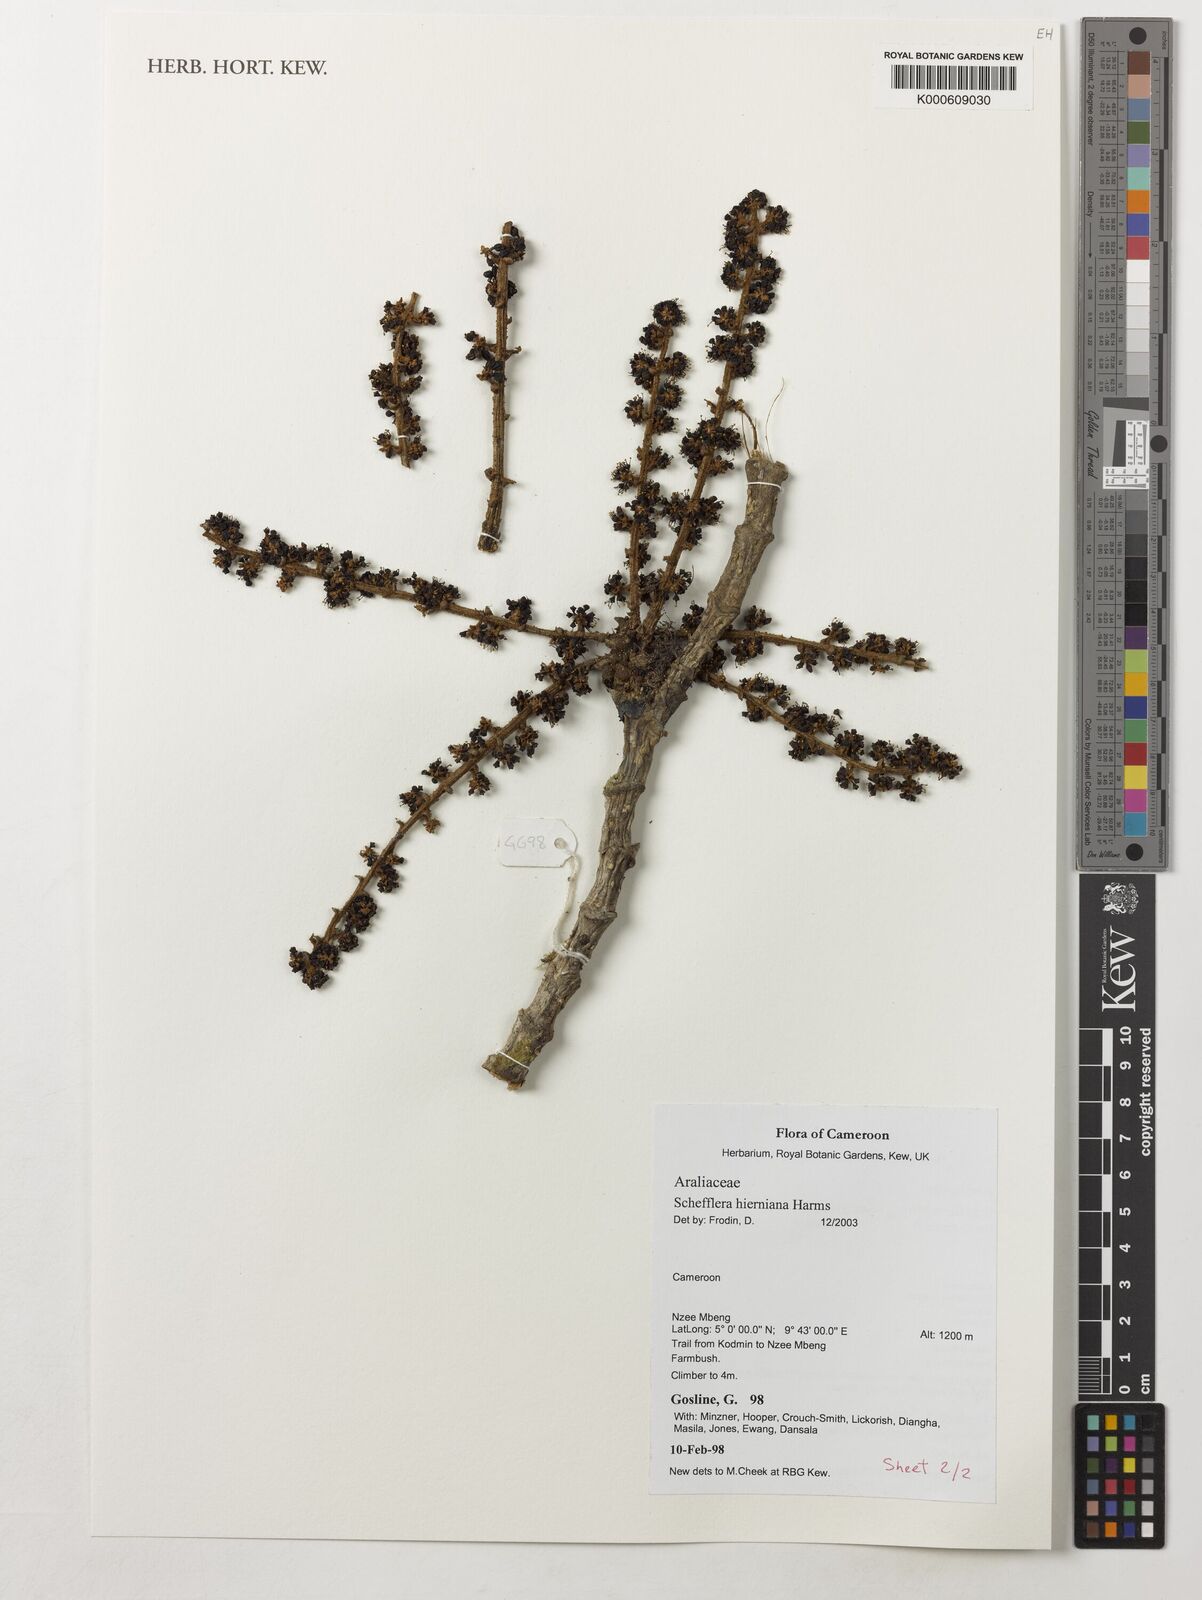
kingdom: Plantae
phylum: Tracheophyta
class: Magnoliopsida
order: Apiales
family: Araliaceae
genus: Astropanax
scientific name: Astropanax barteri
